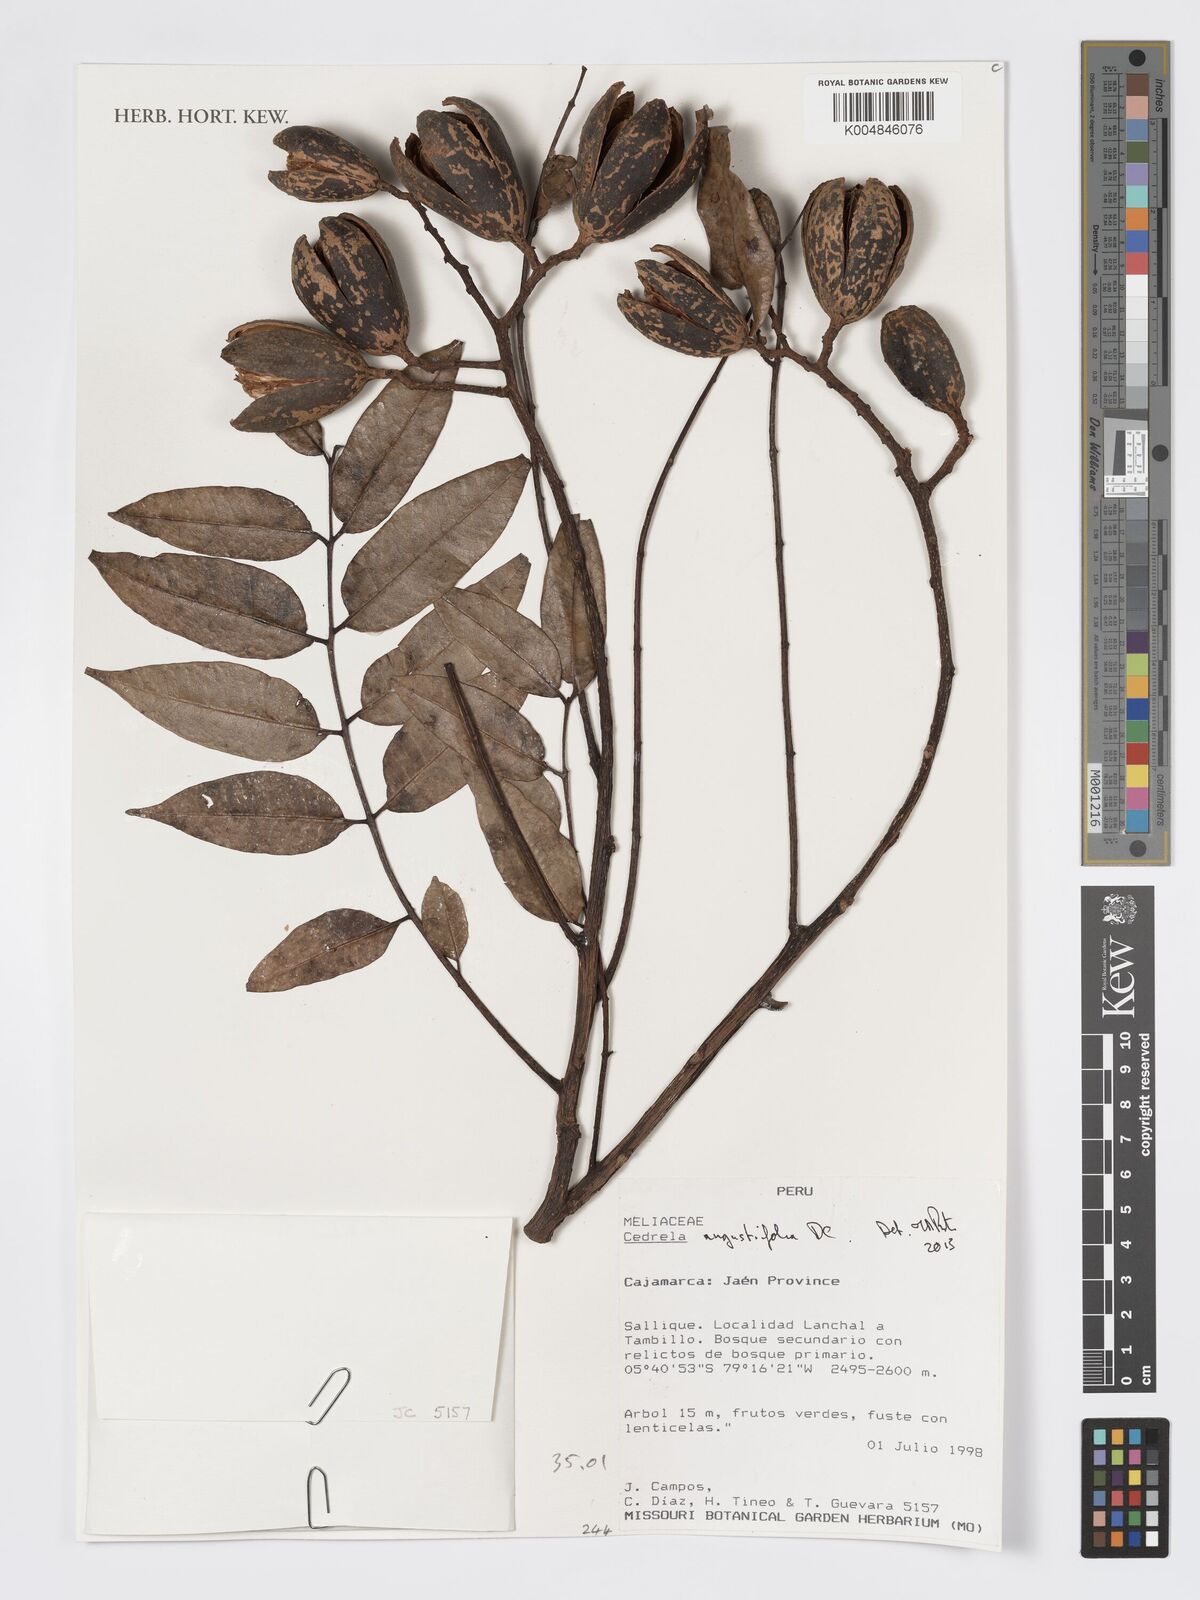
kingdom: Plantae
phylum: Tracheophyta
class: Magnoliopsida
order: Sapindales
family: Meliaceae
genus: Cedrela
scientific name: Cedrela odorata
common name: Red cedar
